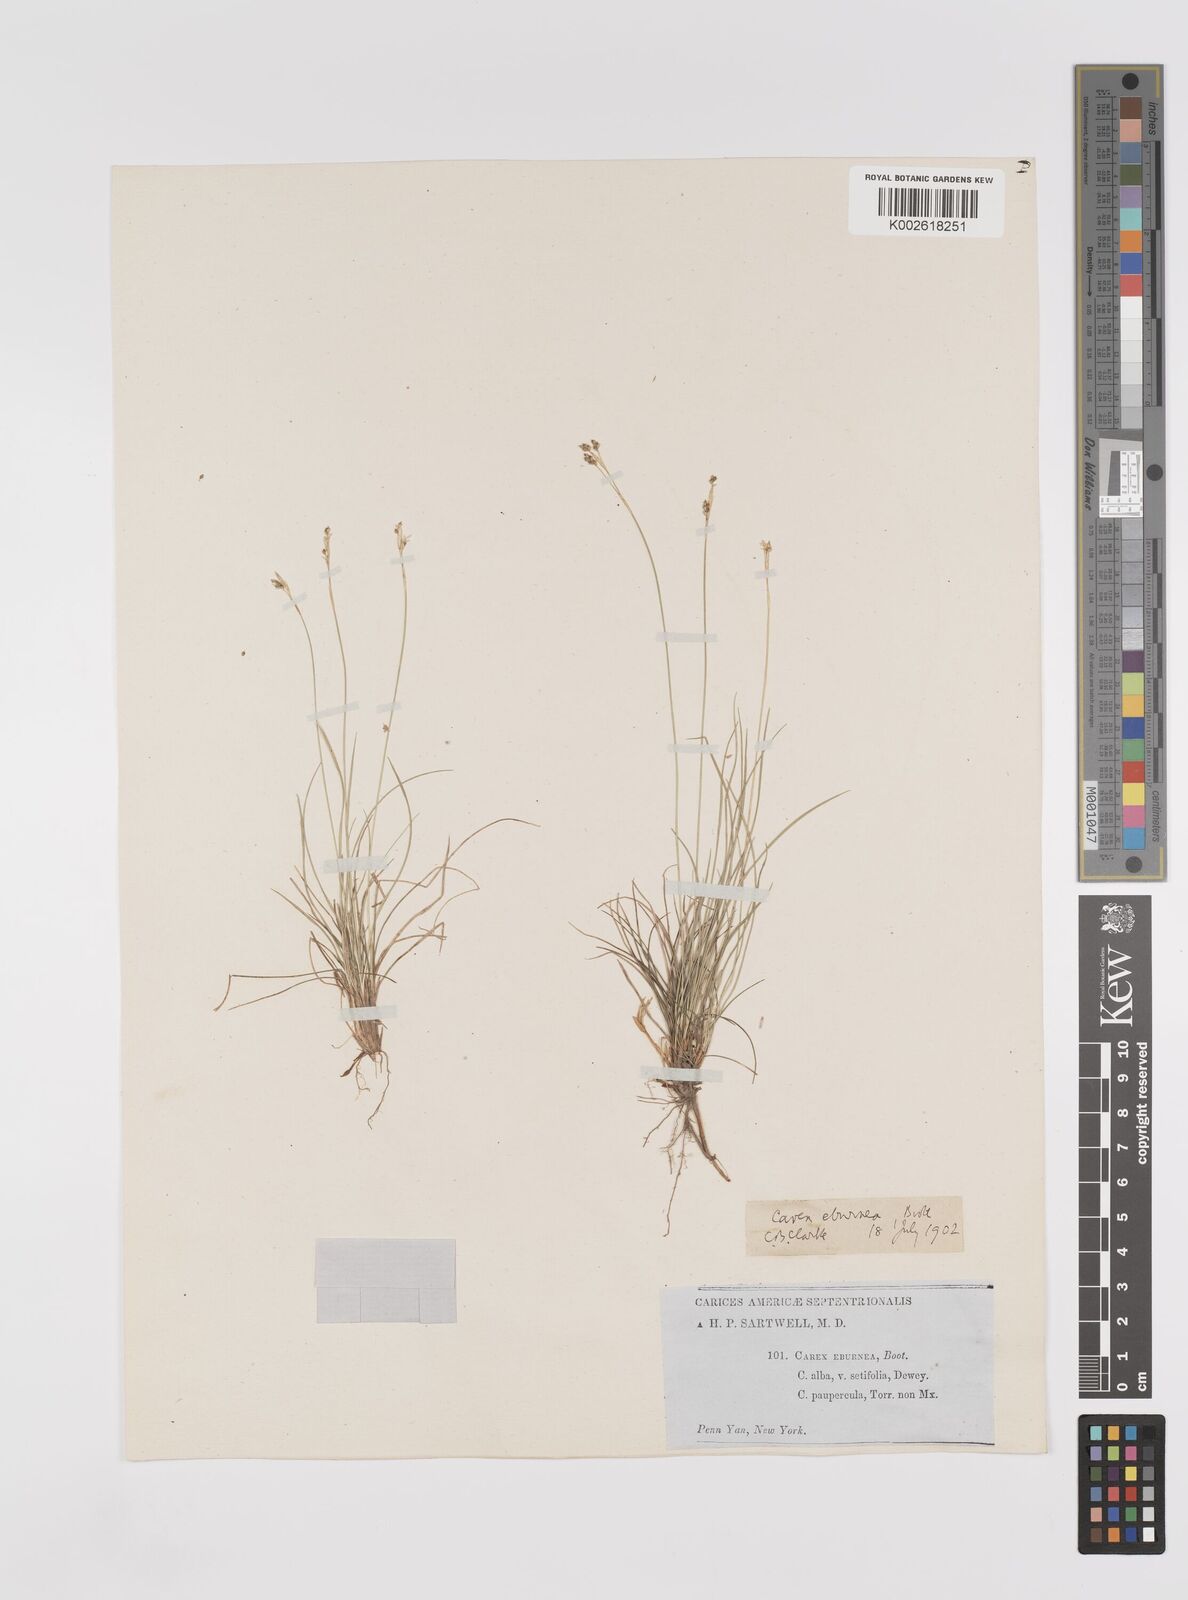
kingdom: Plantae
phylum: Tracheophyta
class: Liliopsida
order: Poales
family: Cyperaceae
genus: Carex
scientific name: Carex eburnea
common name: Bristle-leaved sedge
